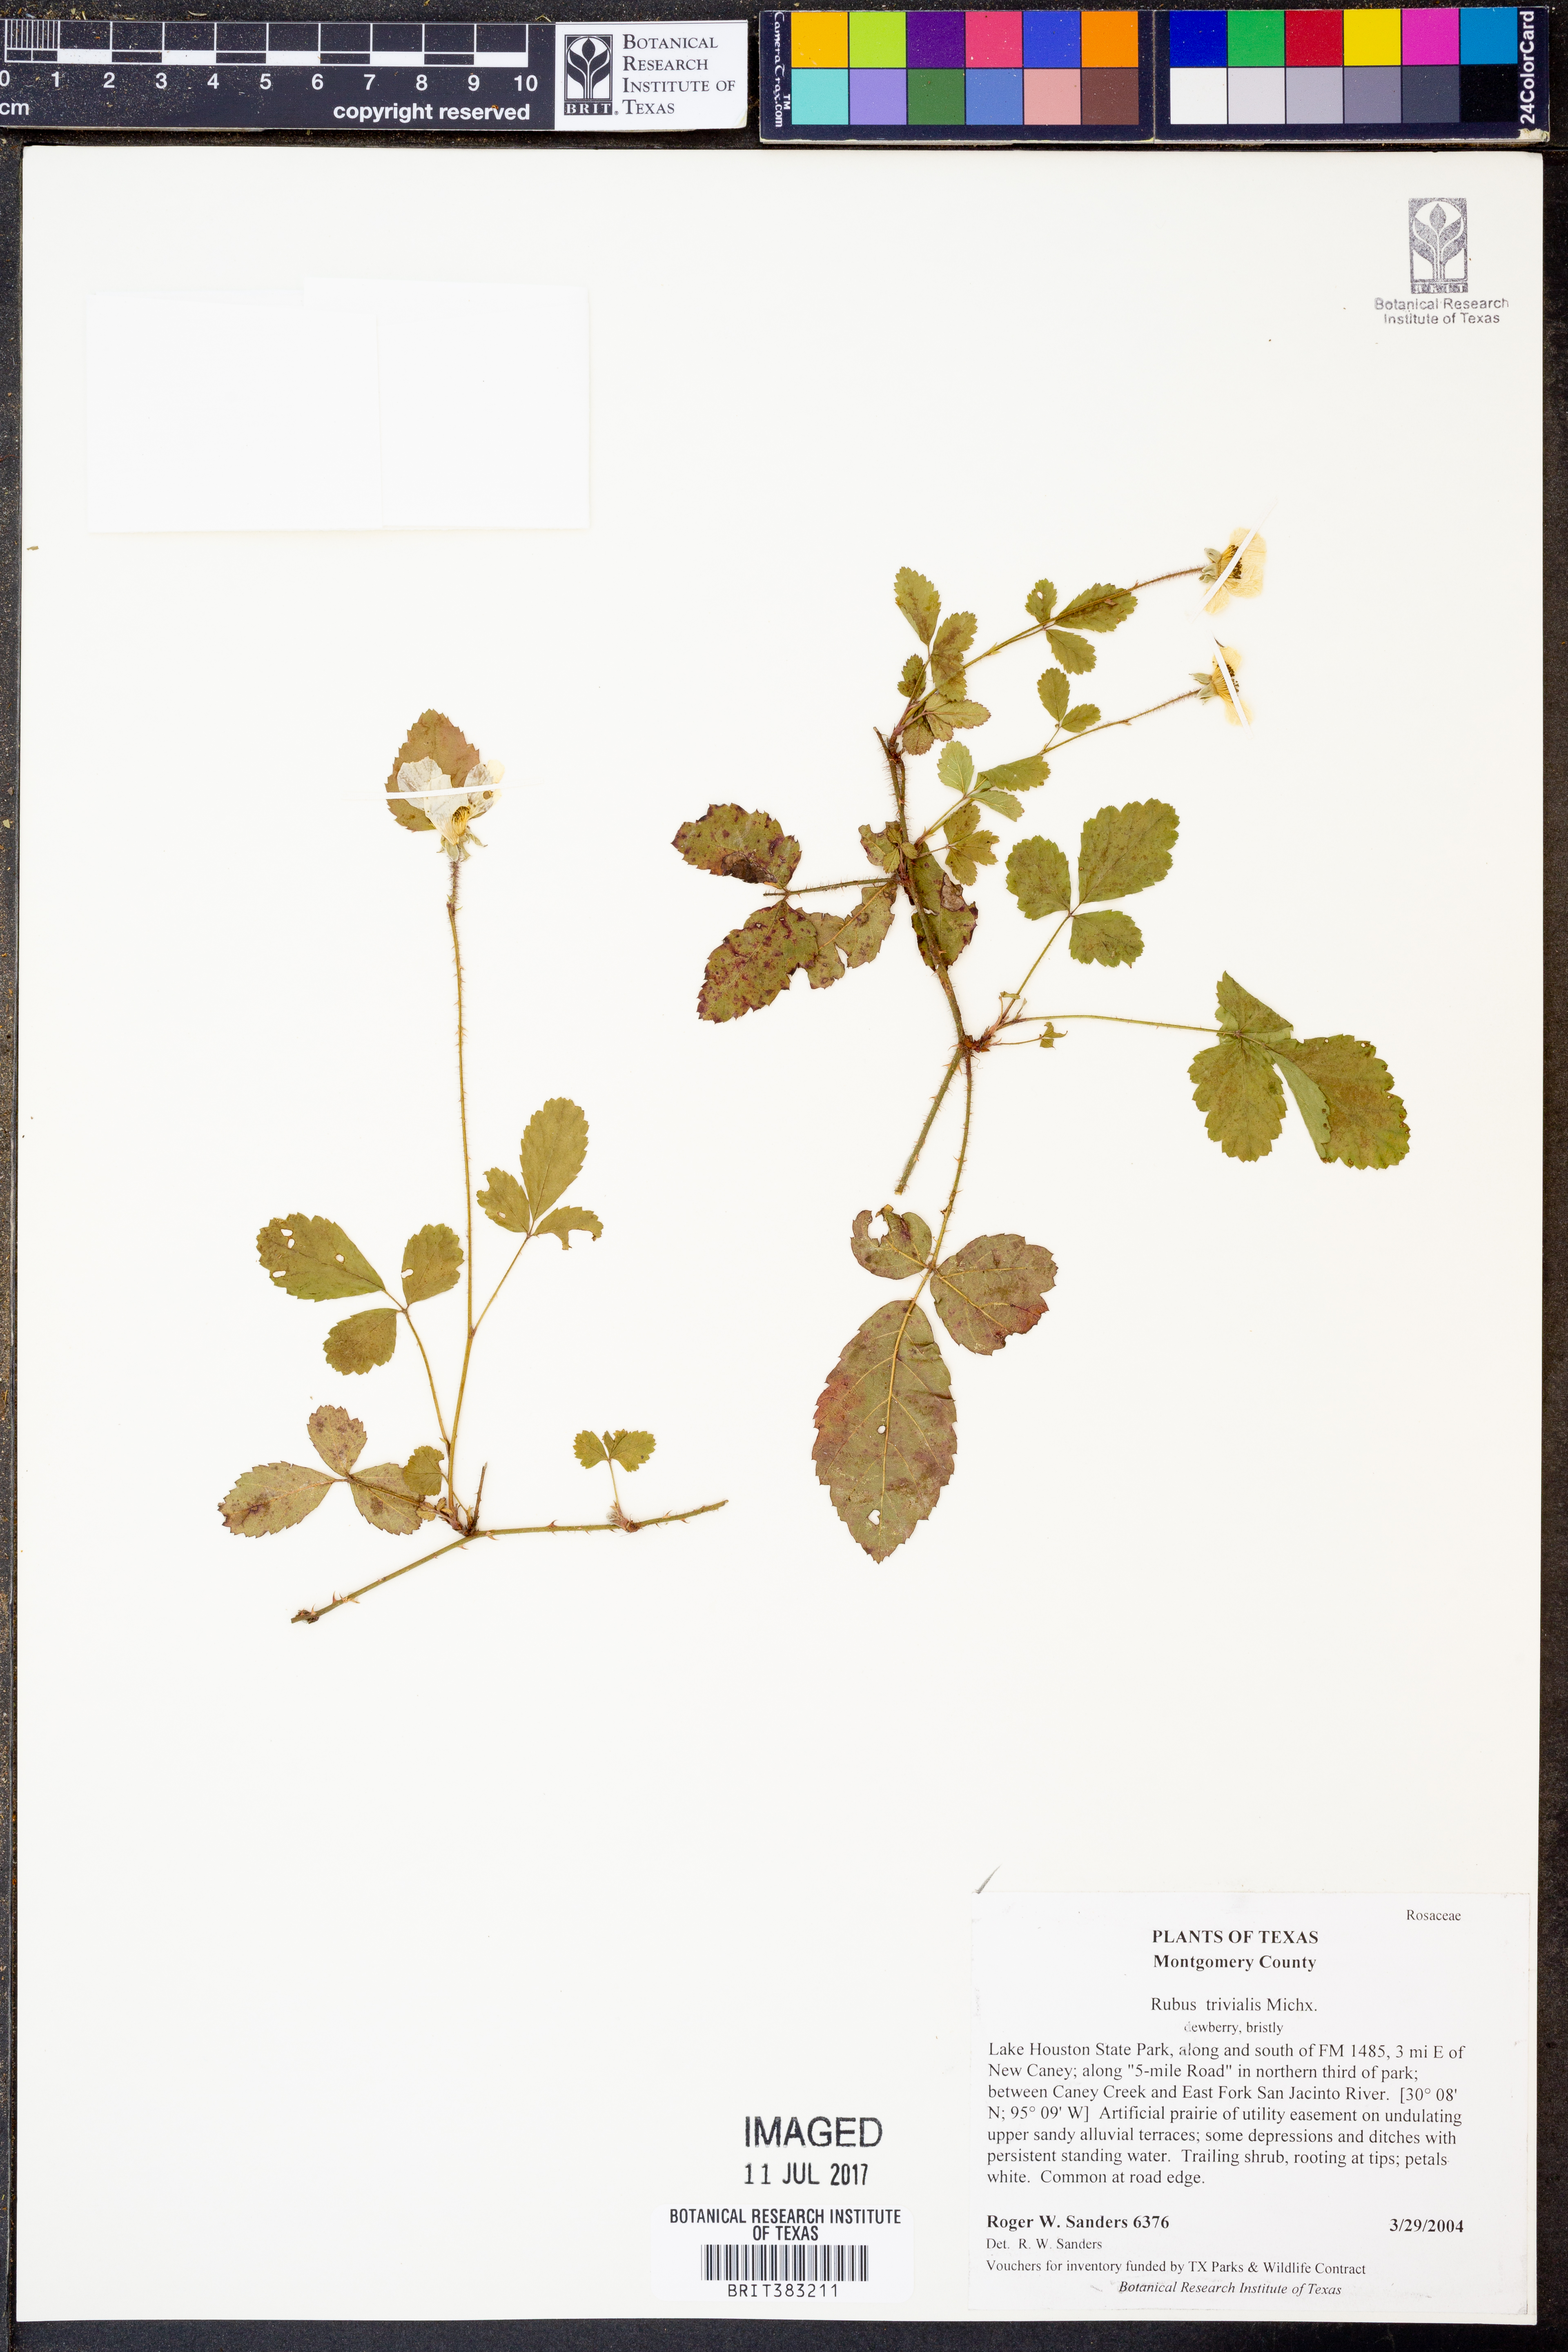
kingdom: Plantae
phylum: Tracheophyta
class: Magnoliopsida
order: Rosales
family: Rosaceae
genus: Rubus
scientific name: Rubus trivialis
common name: Southern dewberry
